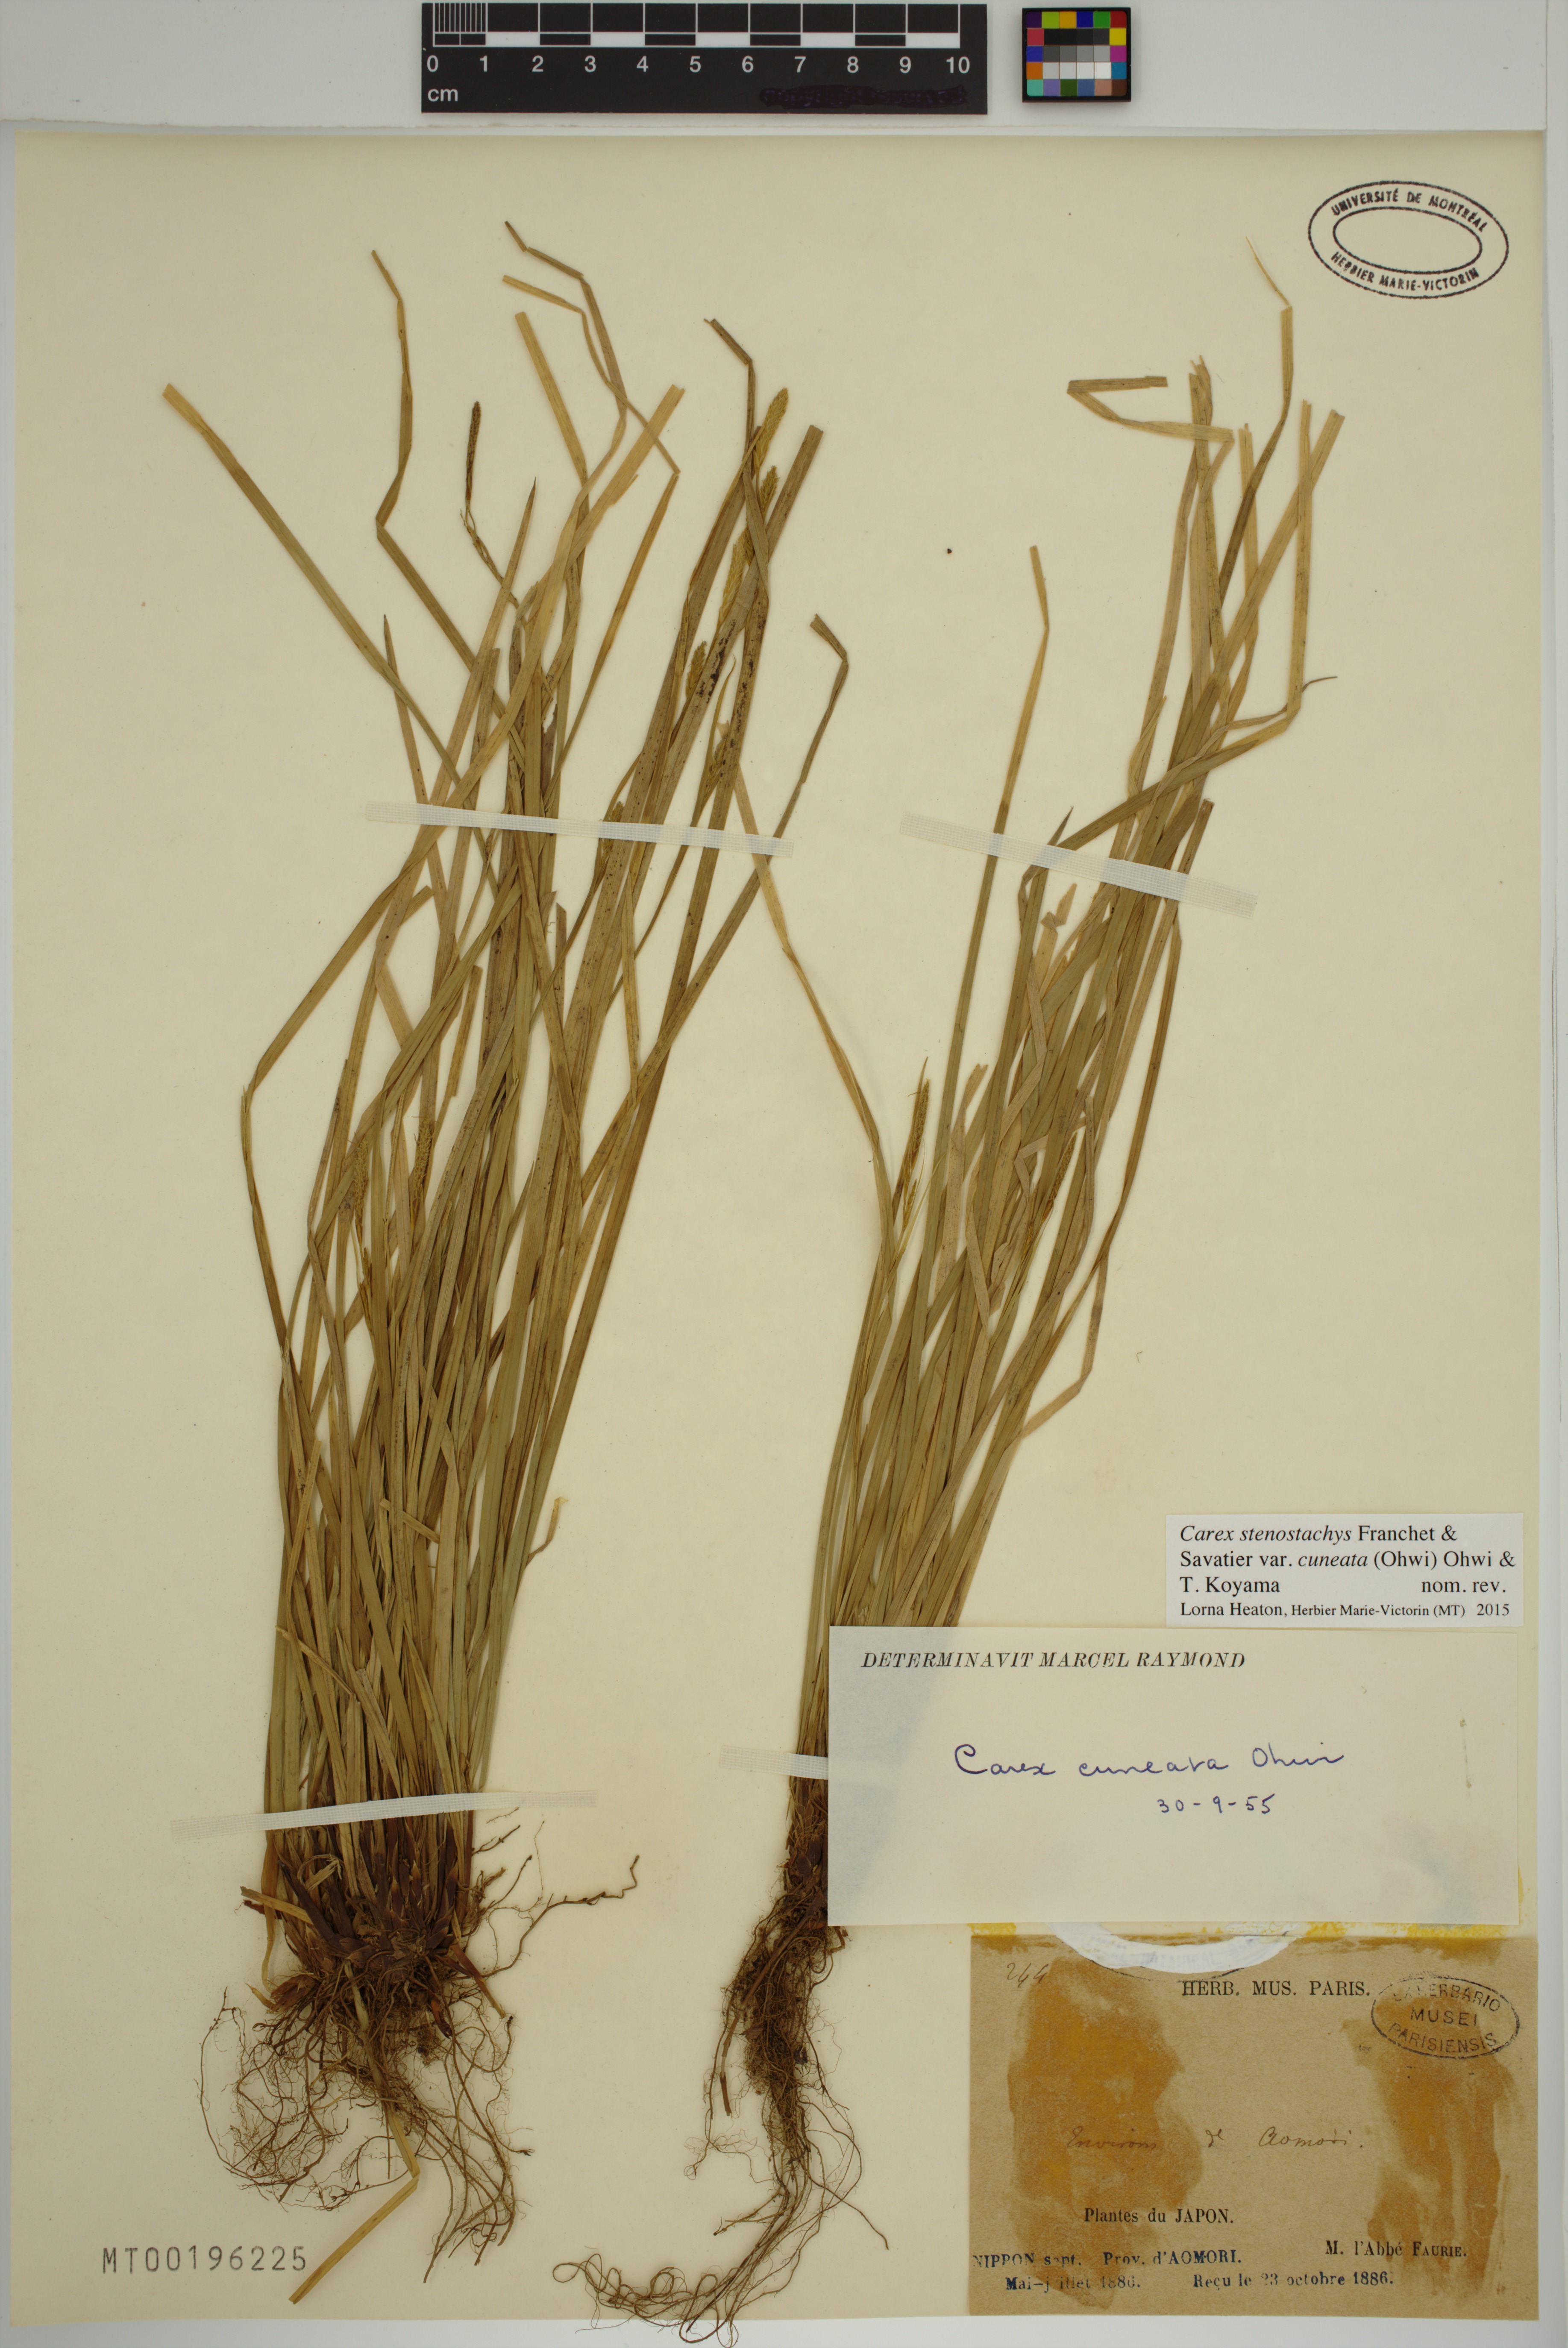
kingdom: Plantae
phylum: Tracheophyta
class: Liliopsida
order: Poales
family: Cyperaceae
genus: Carex
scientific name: Carex stenostachys
